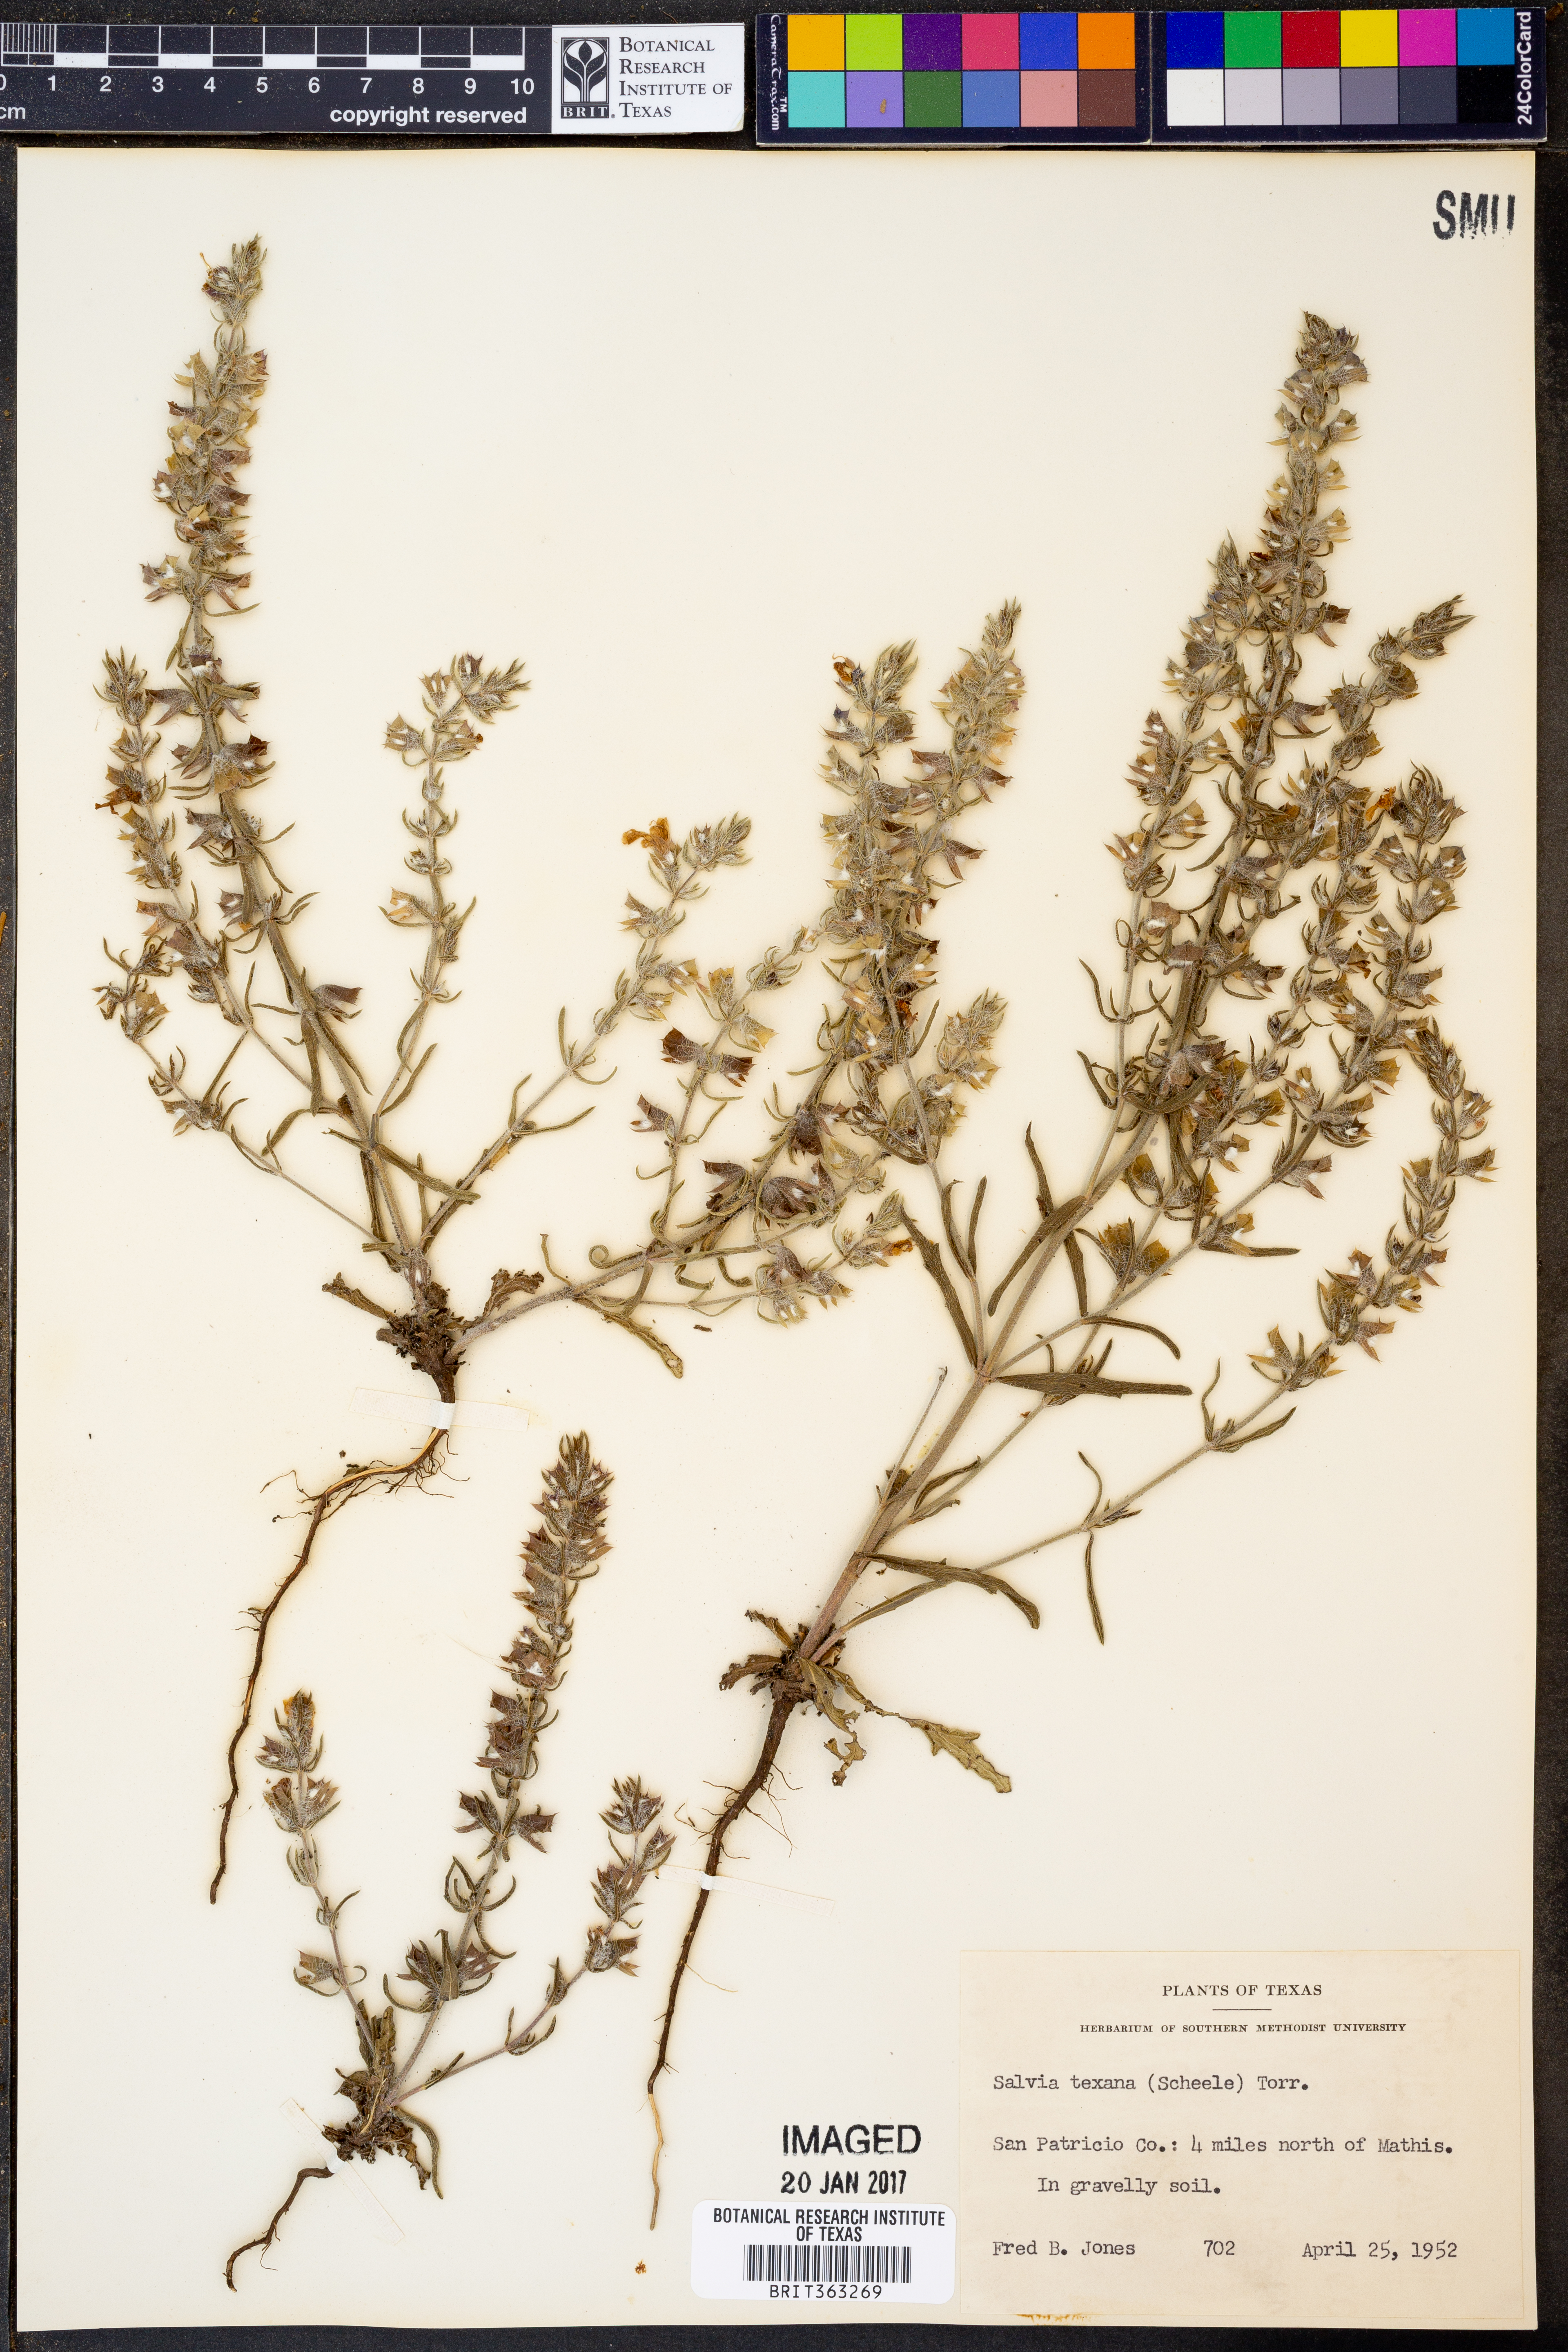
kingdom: Plantae
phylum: Tracheophyta
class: Magnoliopsida
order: Lamiales
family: Lamiaceae
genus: Salvia
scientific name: Salvia texana
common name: Texas sage
